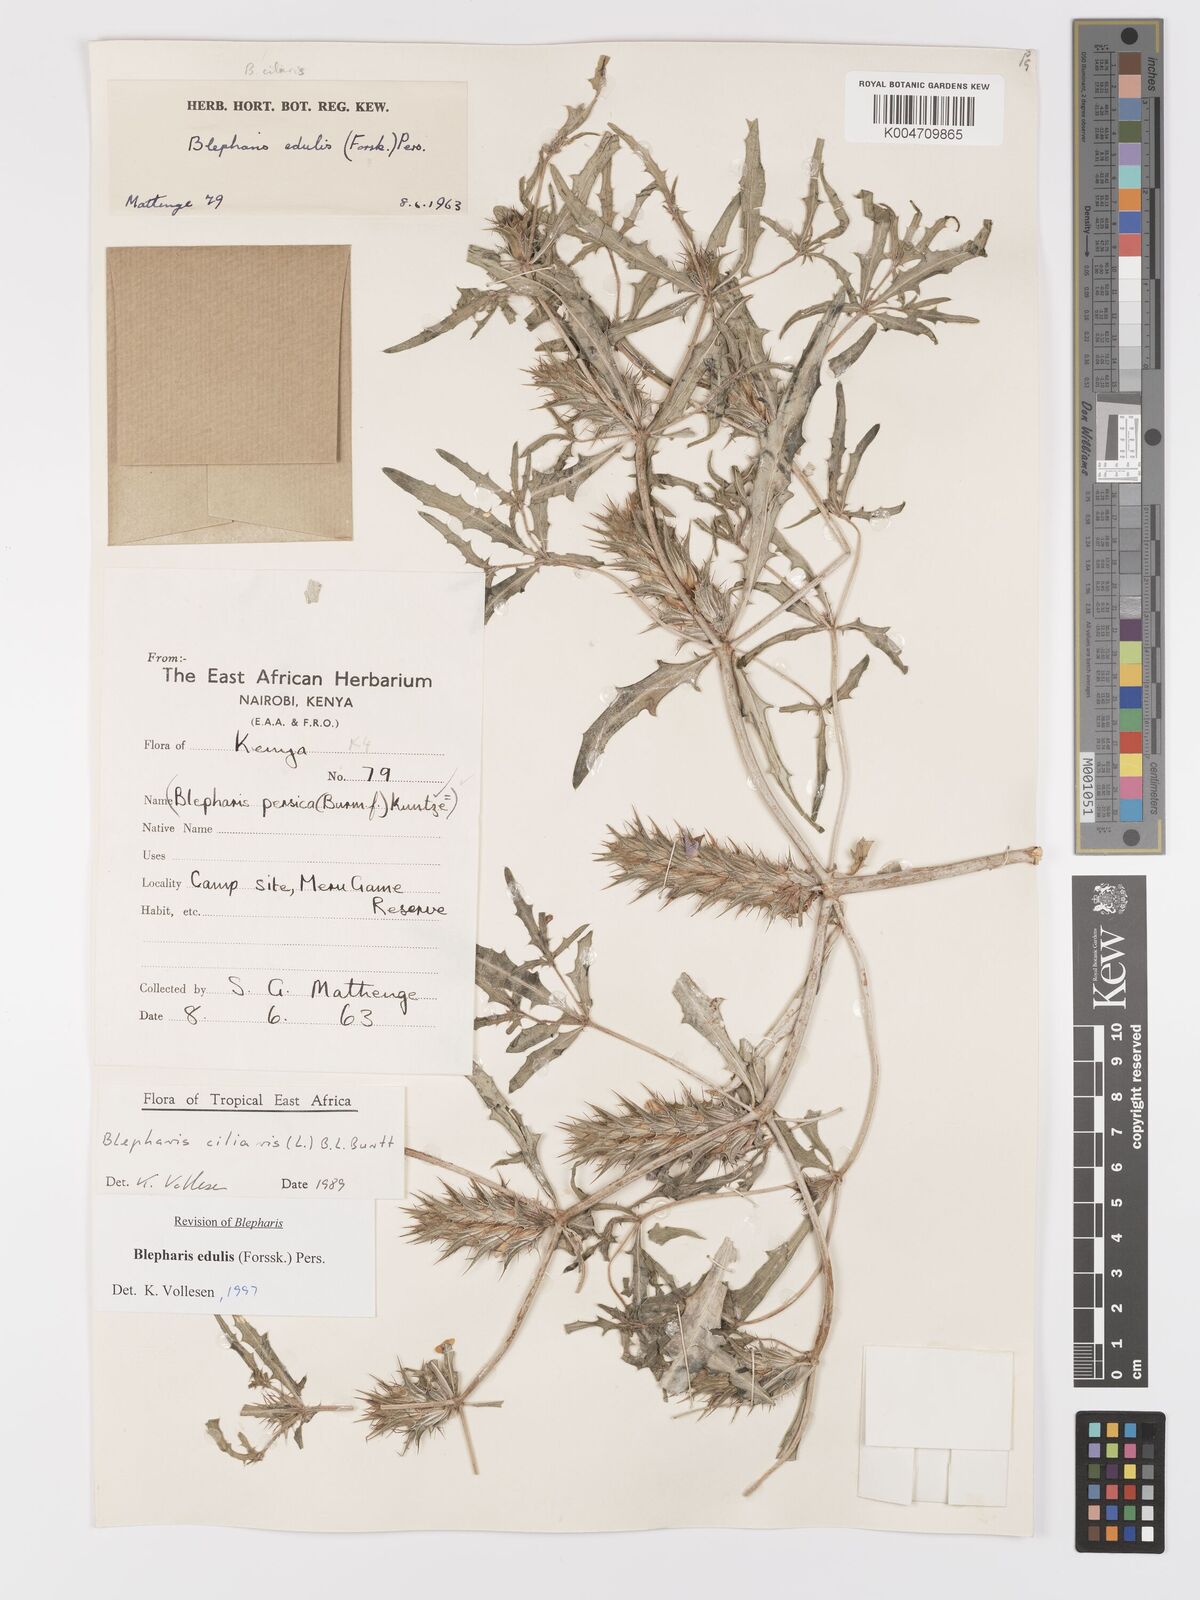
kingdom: Plantae
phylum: Tracheophyta
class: Magnoliopsida
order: Lamiales
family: Acanthaceae
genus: Blepharis
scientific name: Blepharis edulis
